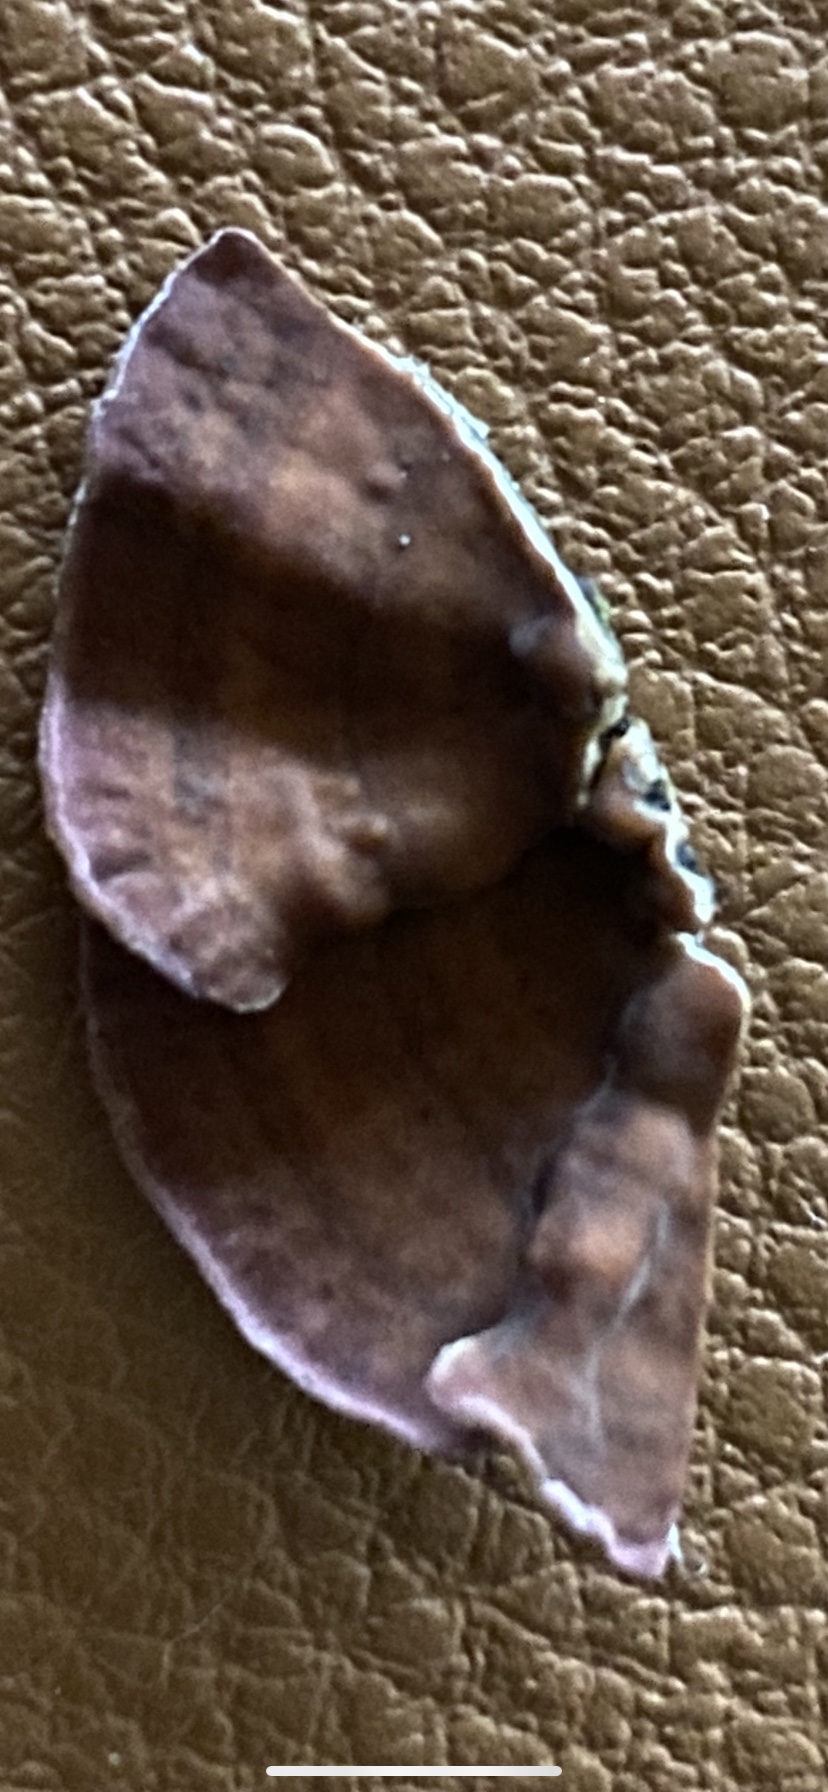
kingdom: Fungi
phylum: Basidiomycota
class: Agaricomycetes
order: Agaricales
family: Cyphellaceae
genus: Chondrostereum
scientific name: Chondrostereum purpureum
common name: purpurlædersvamp
